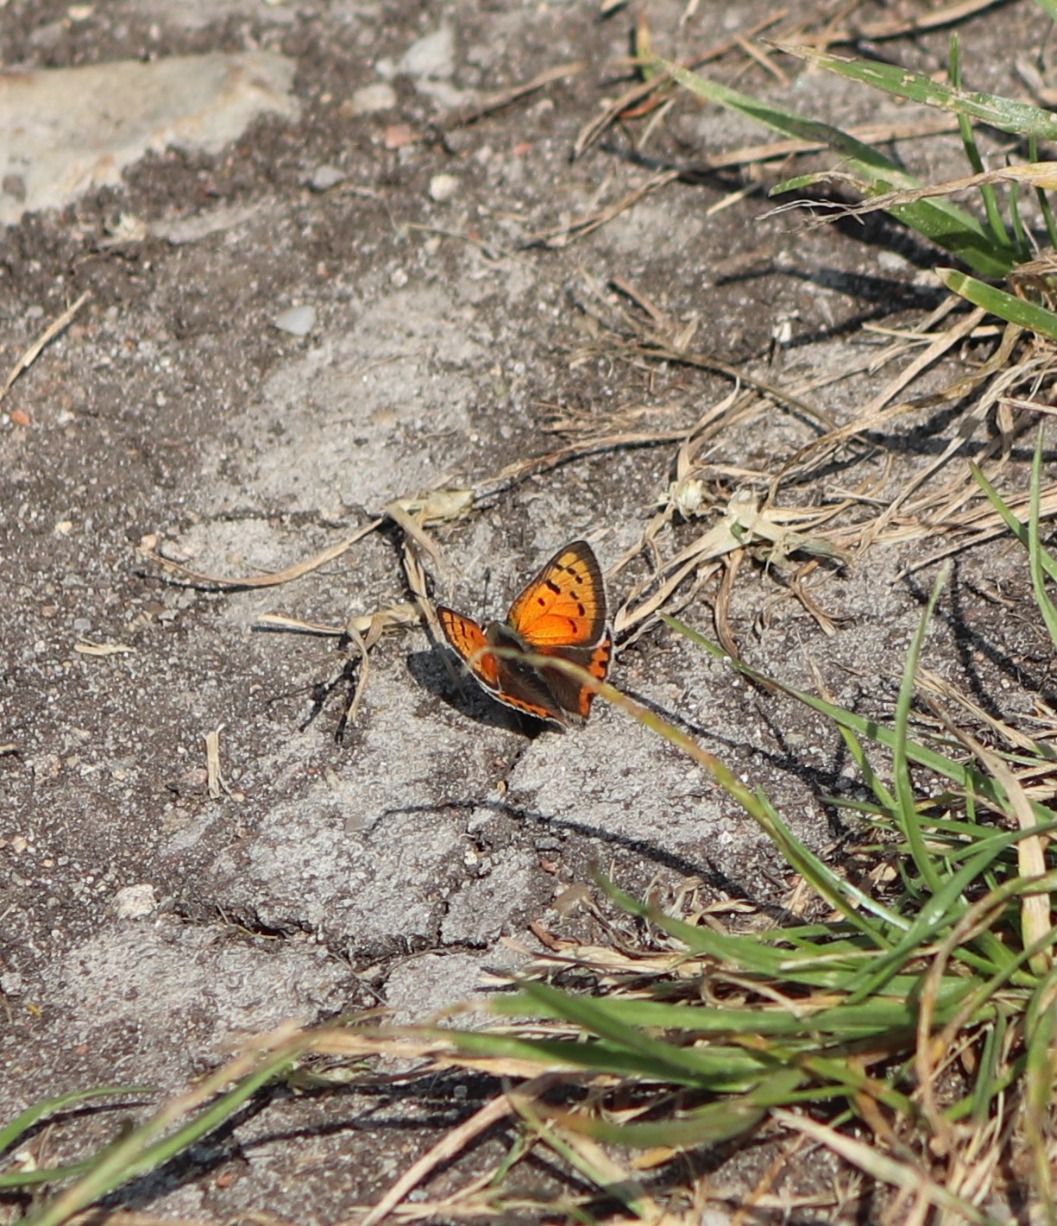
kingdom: Animalia
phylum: Arthropoda
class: Insecta
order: Lepidoptera
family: Lycaenidae
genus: Lycaena
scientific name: Lycaena phlaeas
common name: Lille ildfugl
